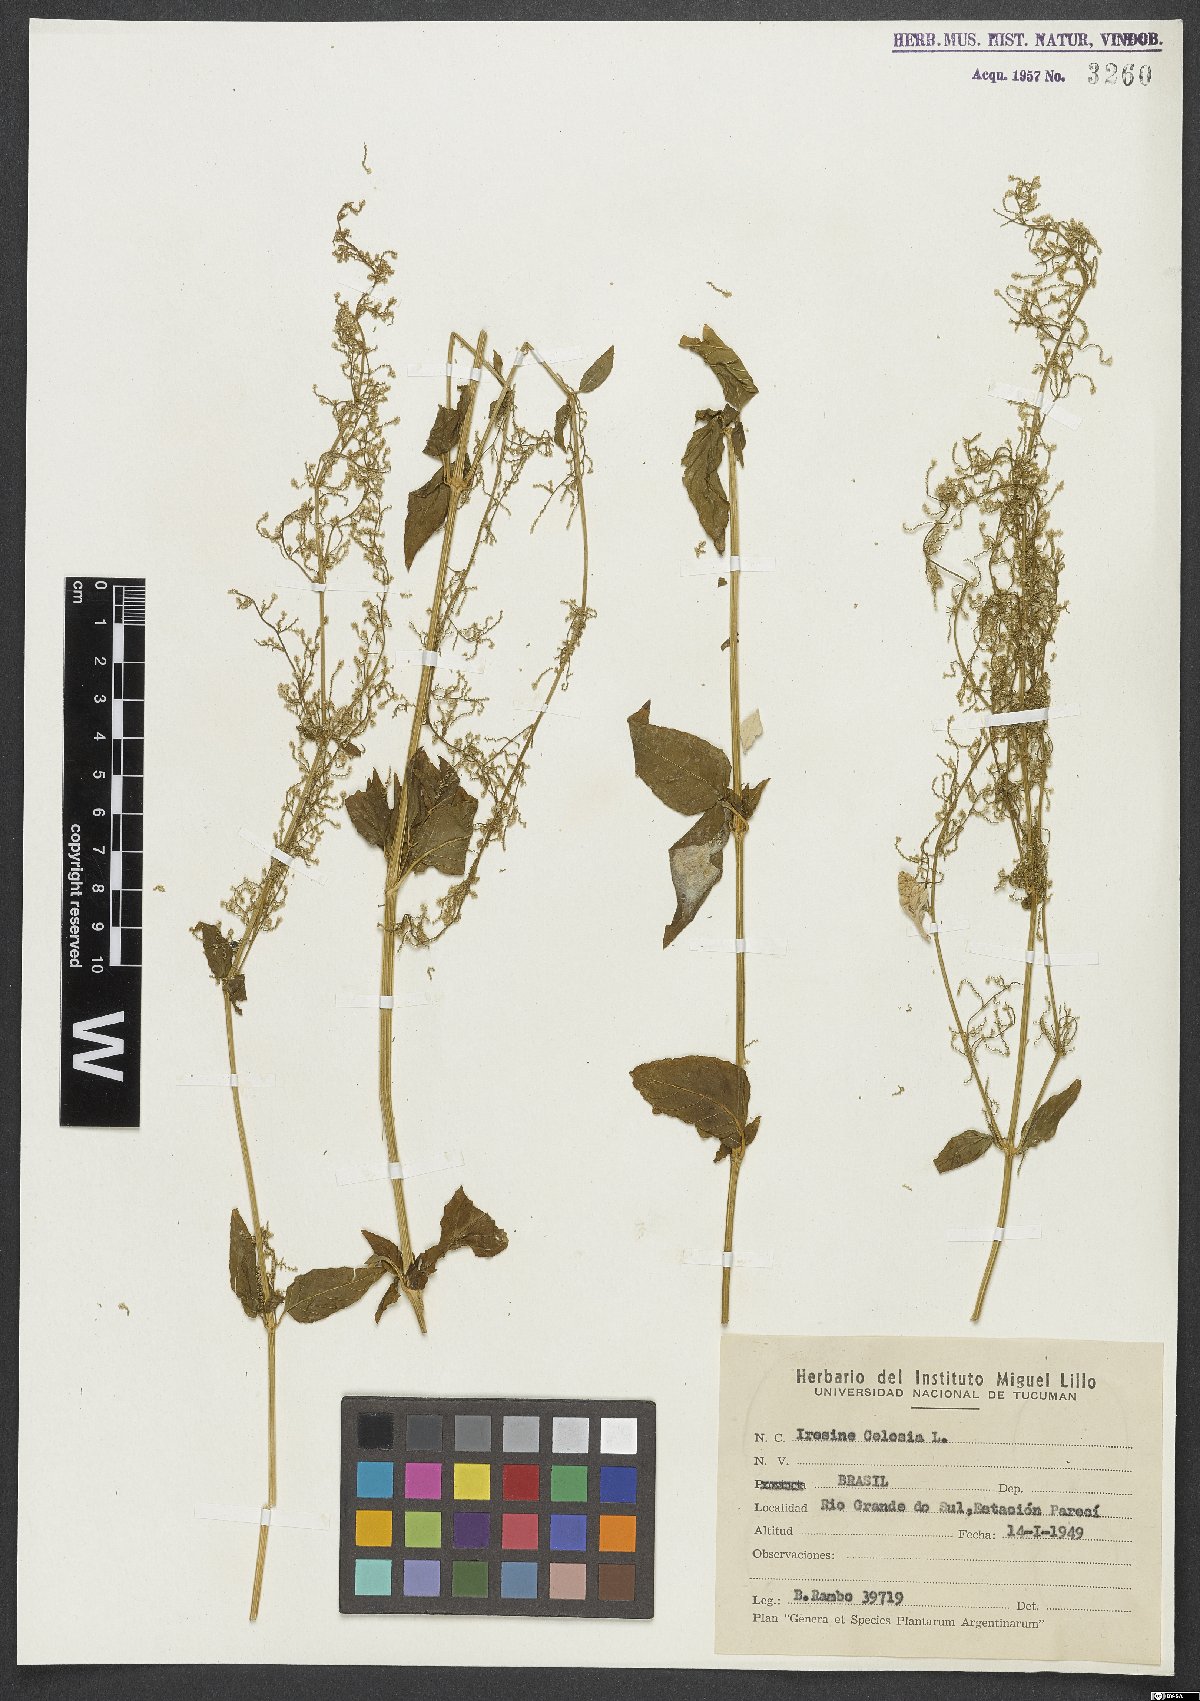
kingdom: Plantae
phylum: Tracheophyta
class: Magnoliopsida
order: Caryophyllales
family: Amaranthaceae
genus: Iresine
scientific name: Iresine rhizomatosa
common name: Juda's-bush
